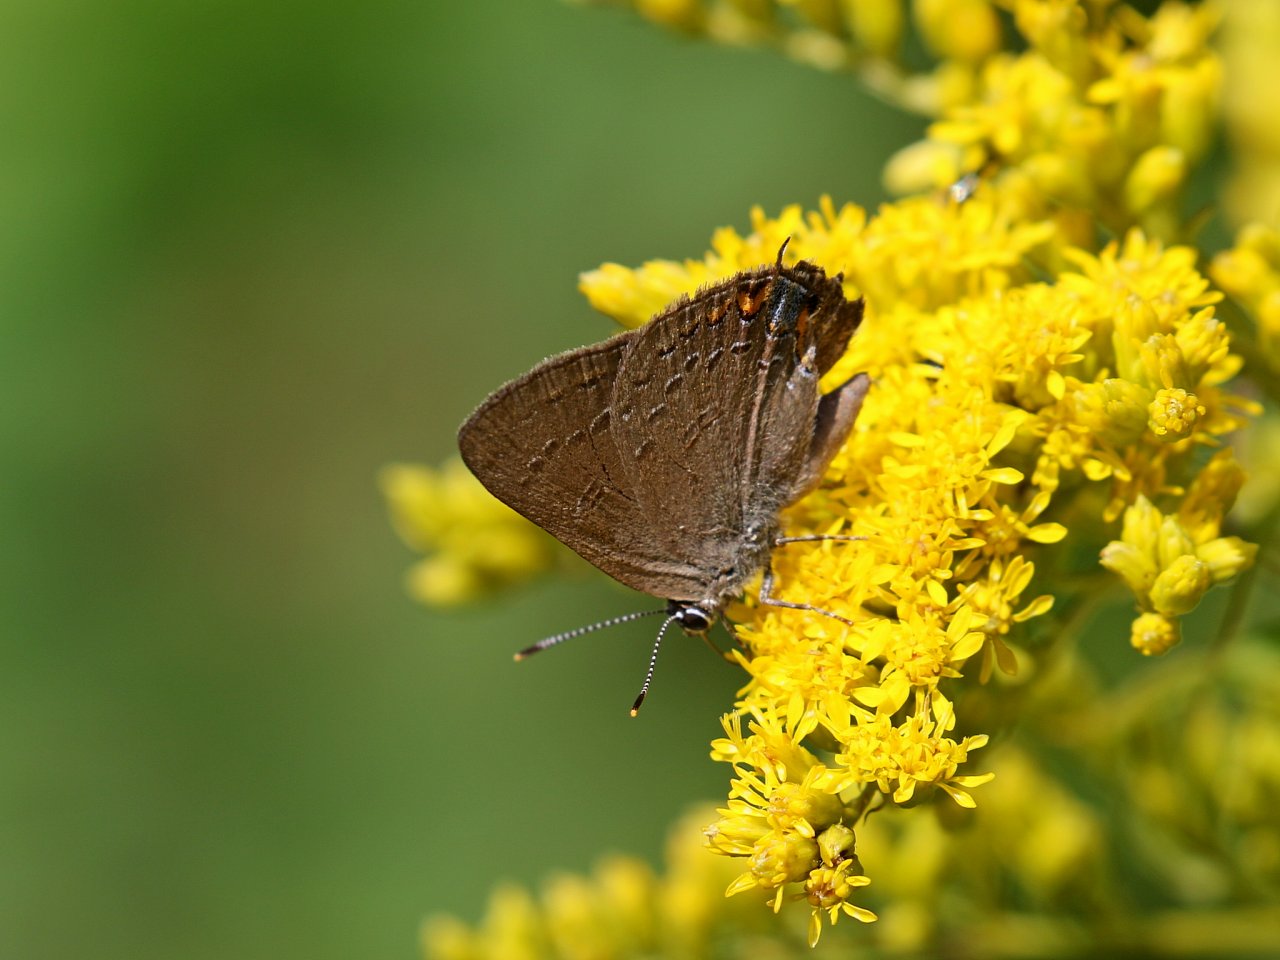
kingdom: Animalia
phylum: Arthropoda
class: Insecta
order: Lepidoptera
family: Lycaenidae
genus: Satyrium
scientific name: Satyrium edwardsii
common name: Edwards' Hairstreak
